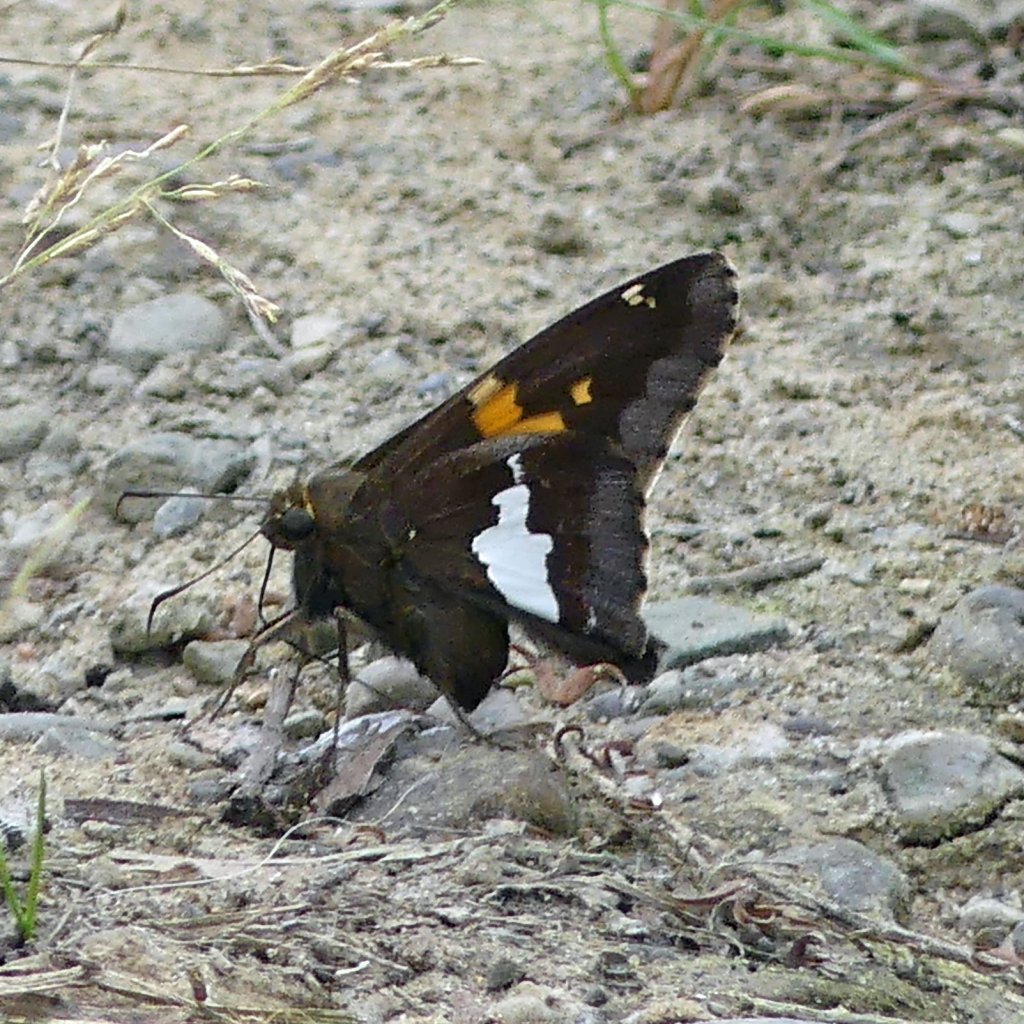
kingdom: Animalia
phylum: Arthropoda
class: Insecta
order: Lepidoptera
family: Hesperiidae
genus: Epargyreus
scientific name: Epargyreus clarus
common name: Silver-spotted Skipper
